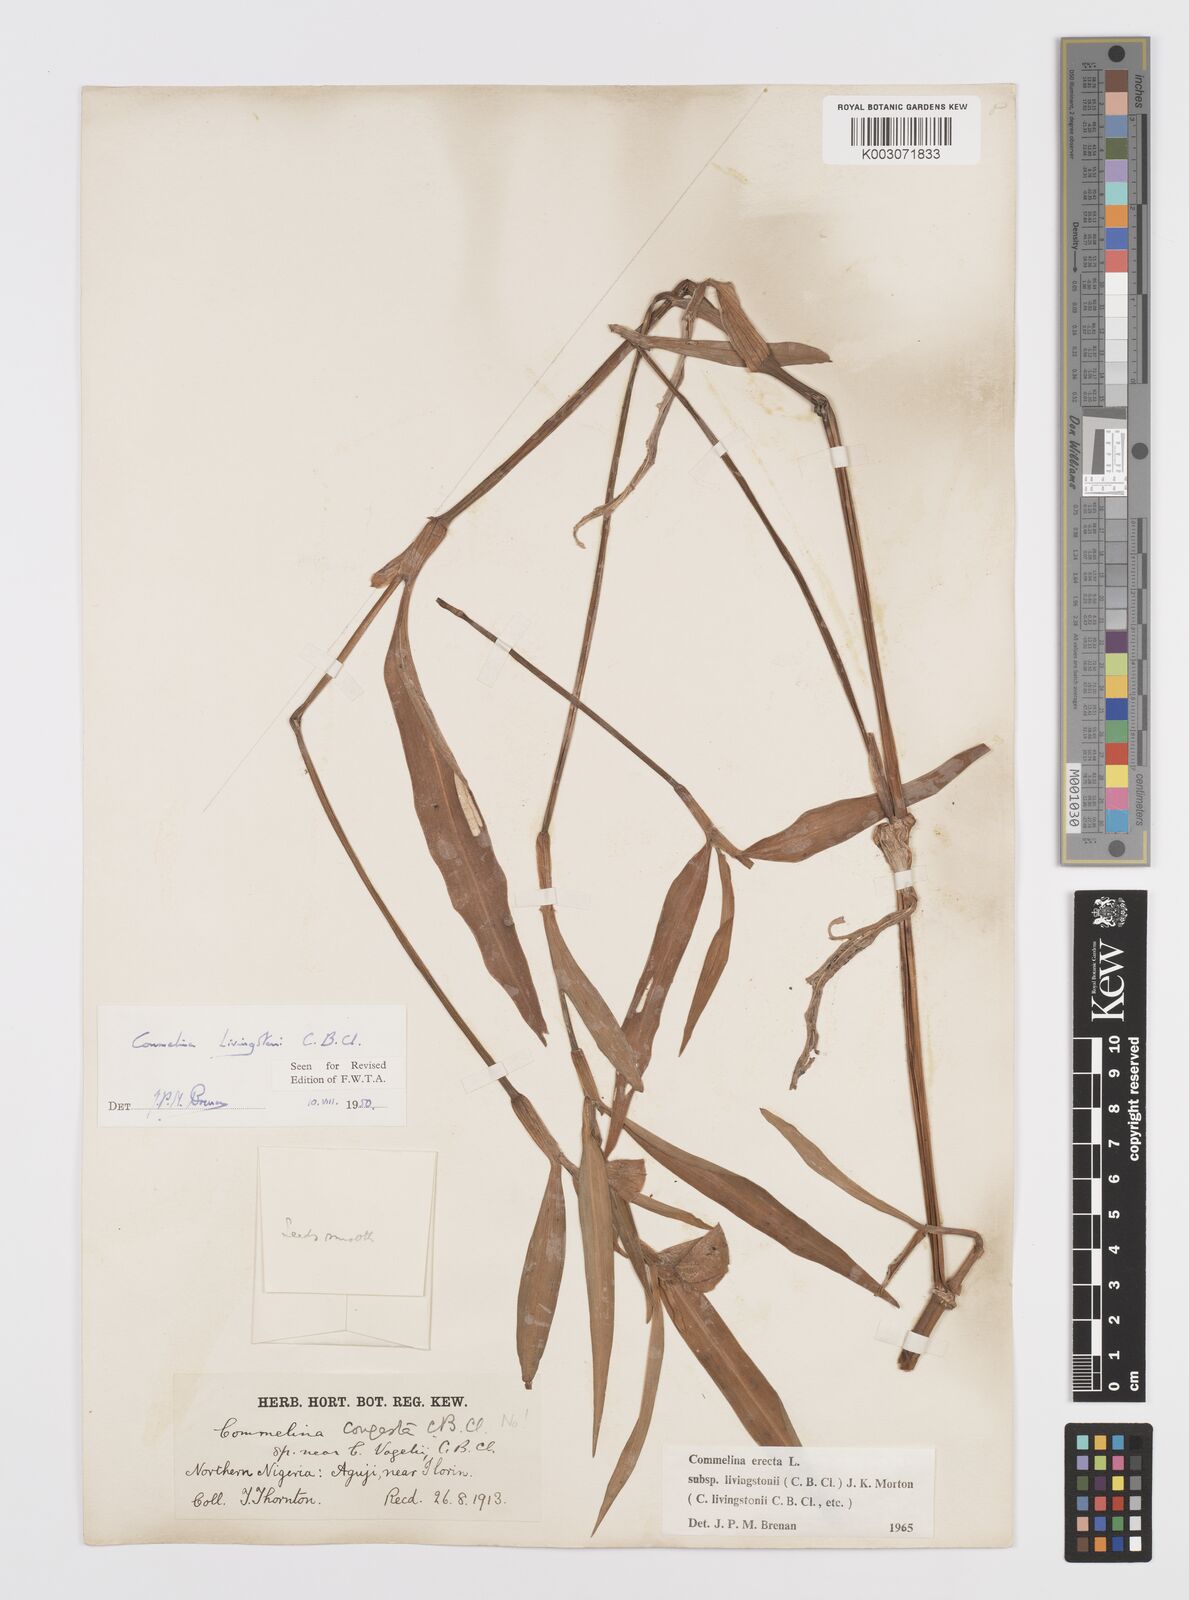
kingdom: Plantae
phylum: Tracheophyta
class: Liliopsida
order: Commelinales
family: Commelinaceae
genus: Commelina
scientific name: Commelina erecta
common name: Blousel blommetjie
